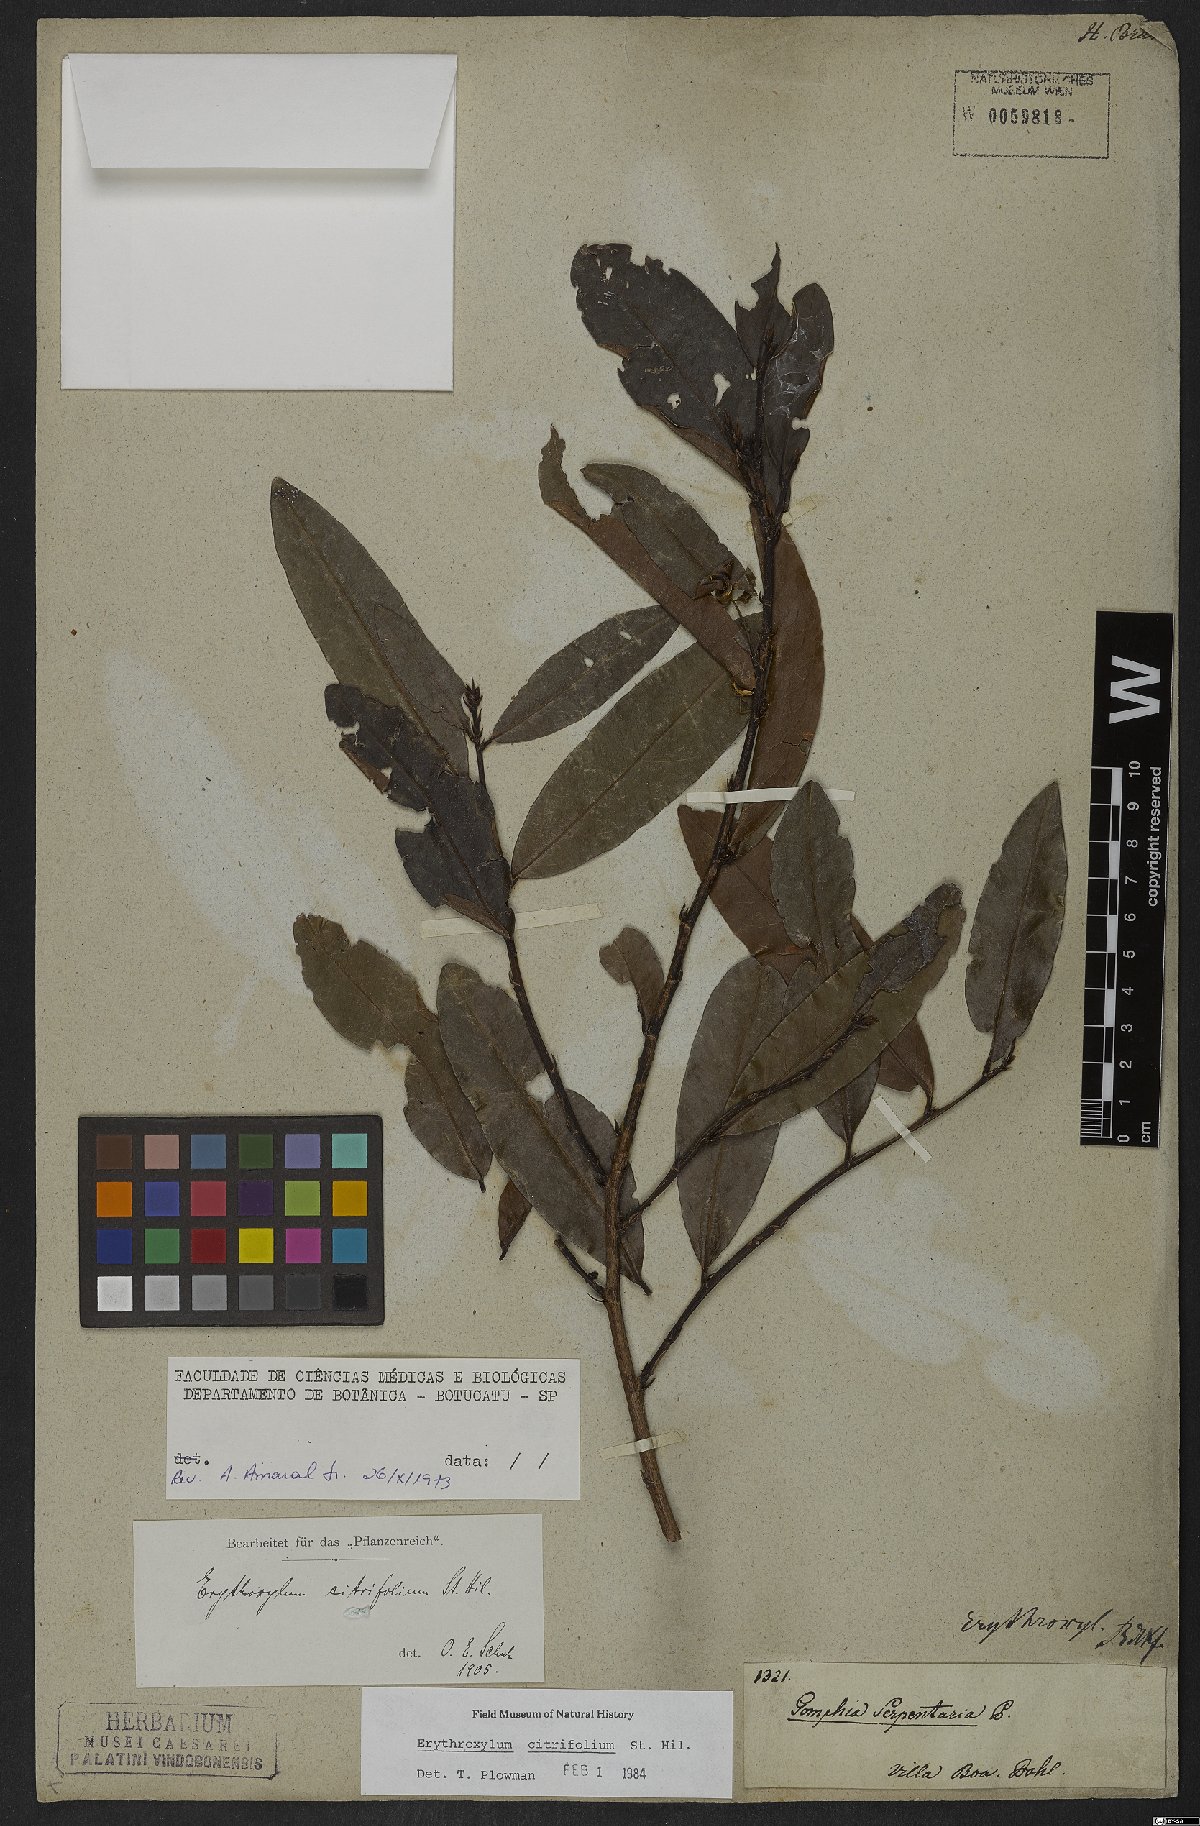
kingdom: Plantae
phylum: Tracheophyta
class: Magnoliopsida
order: Malpighiales
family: Erythroxylaceae
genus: Erythroxylum
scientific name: Erythroxylum citrifolium
